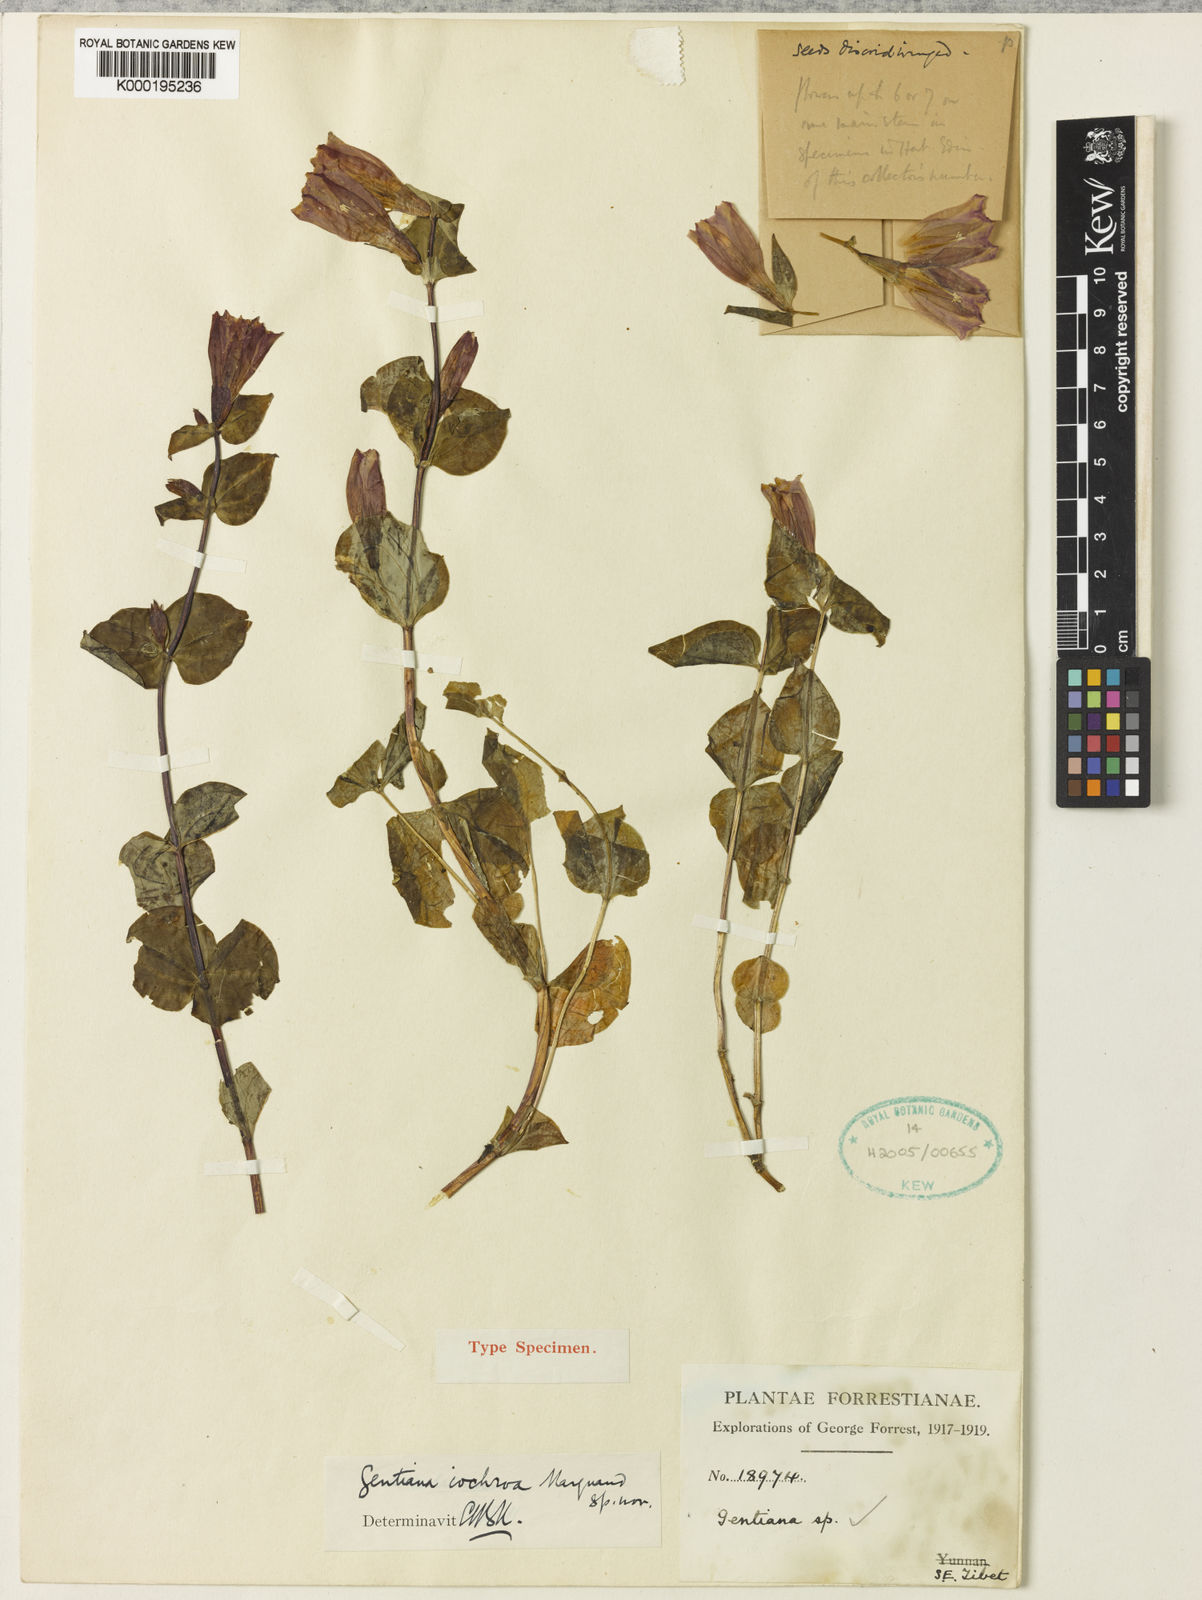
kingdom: Plantae
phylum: Tracheophyta
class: Magnoliopsida
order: Gentianales
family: Gentianaceae
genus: Crawfurdia
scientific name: Crawfurdia crawfurdioides
